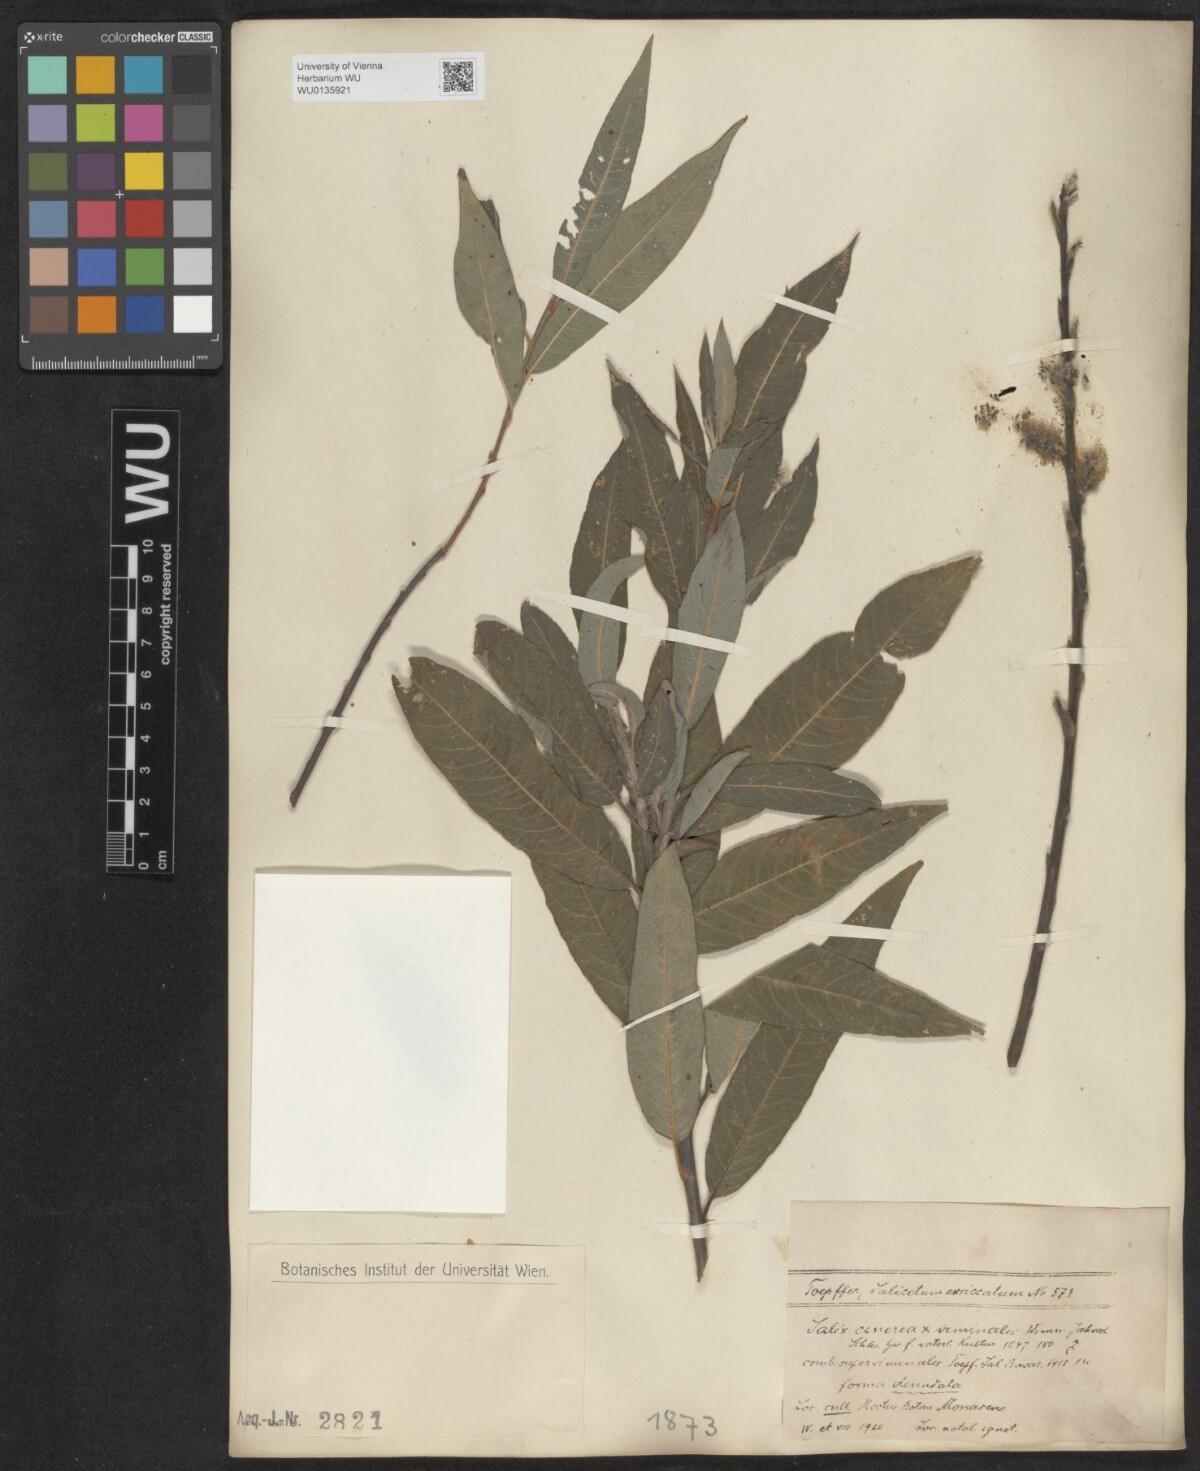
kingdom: Plantae
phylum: Tracheophyta
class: Magnoliopsida
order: Malpighiales
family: Salicaceae
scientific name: Salicaceae
